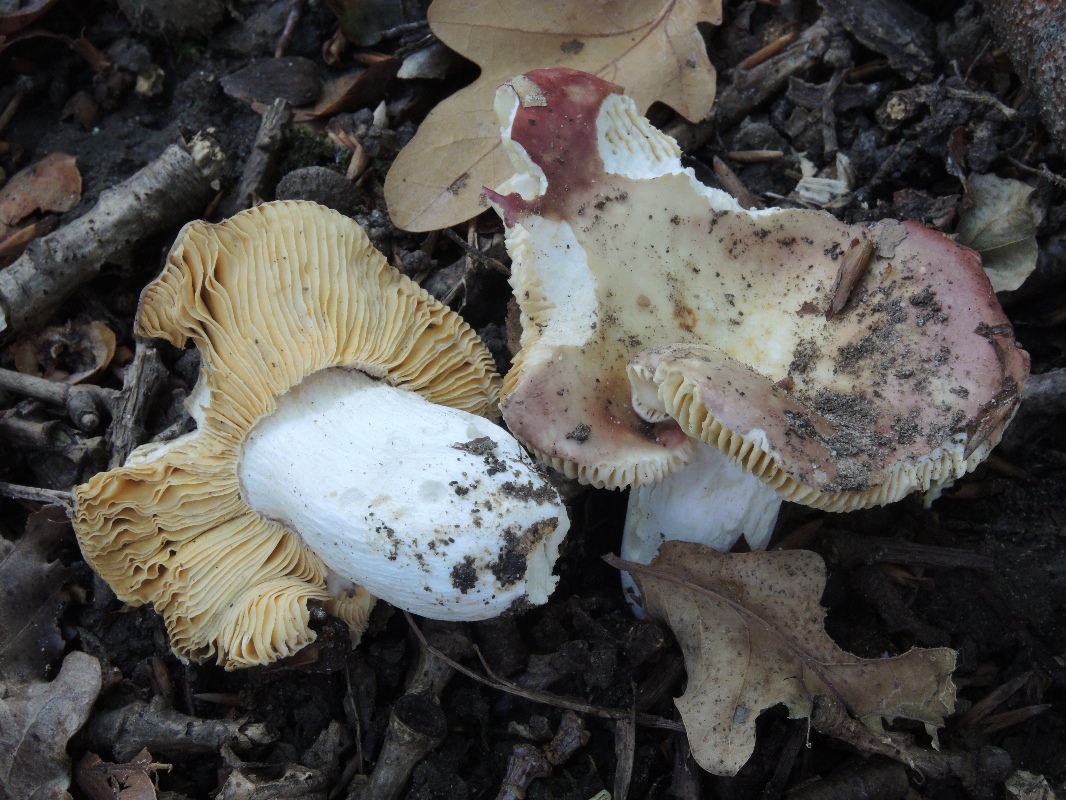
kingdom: Fungi
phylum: Basidiomycota
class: Agaricomycetes
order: Russulales
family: Russulaceae
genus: Russula
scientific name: Russula decipiens
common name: grånende skørhat
